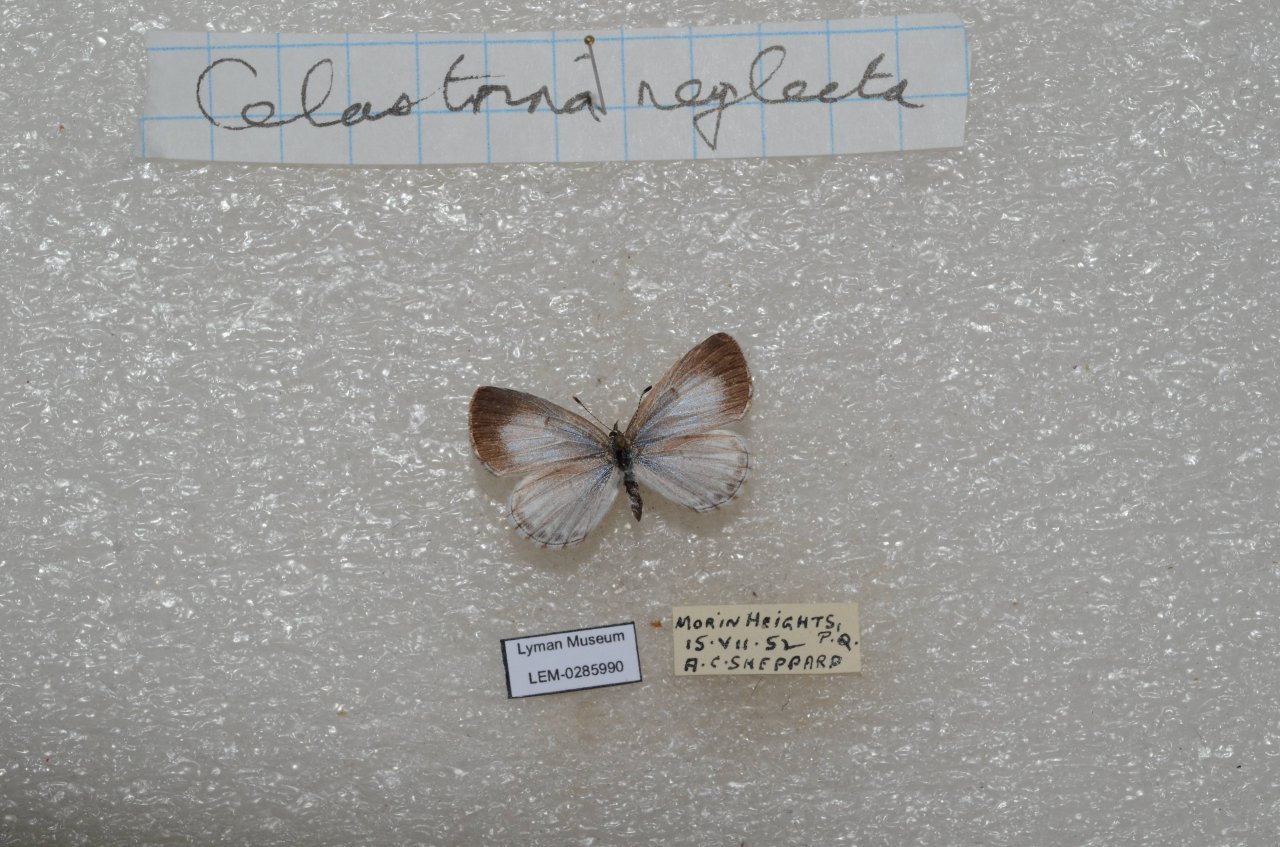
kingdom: Animalia
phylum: Arthropoda
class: Insecta
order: Lepidoptera
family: Lycaenidae
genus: Celastrina
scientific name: Celastrina lucia
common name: Northern Spring Azure
